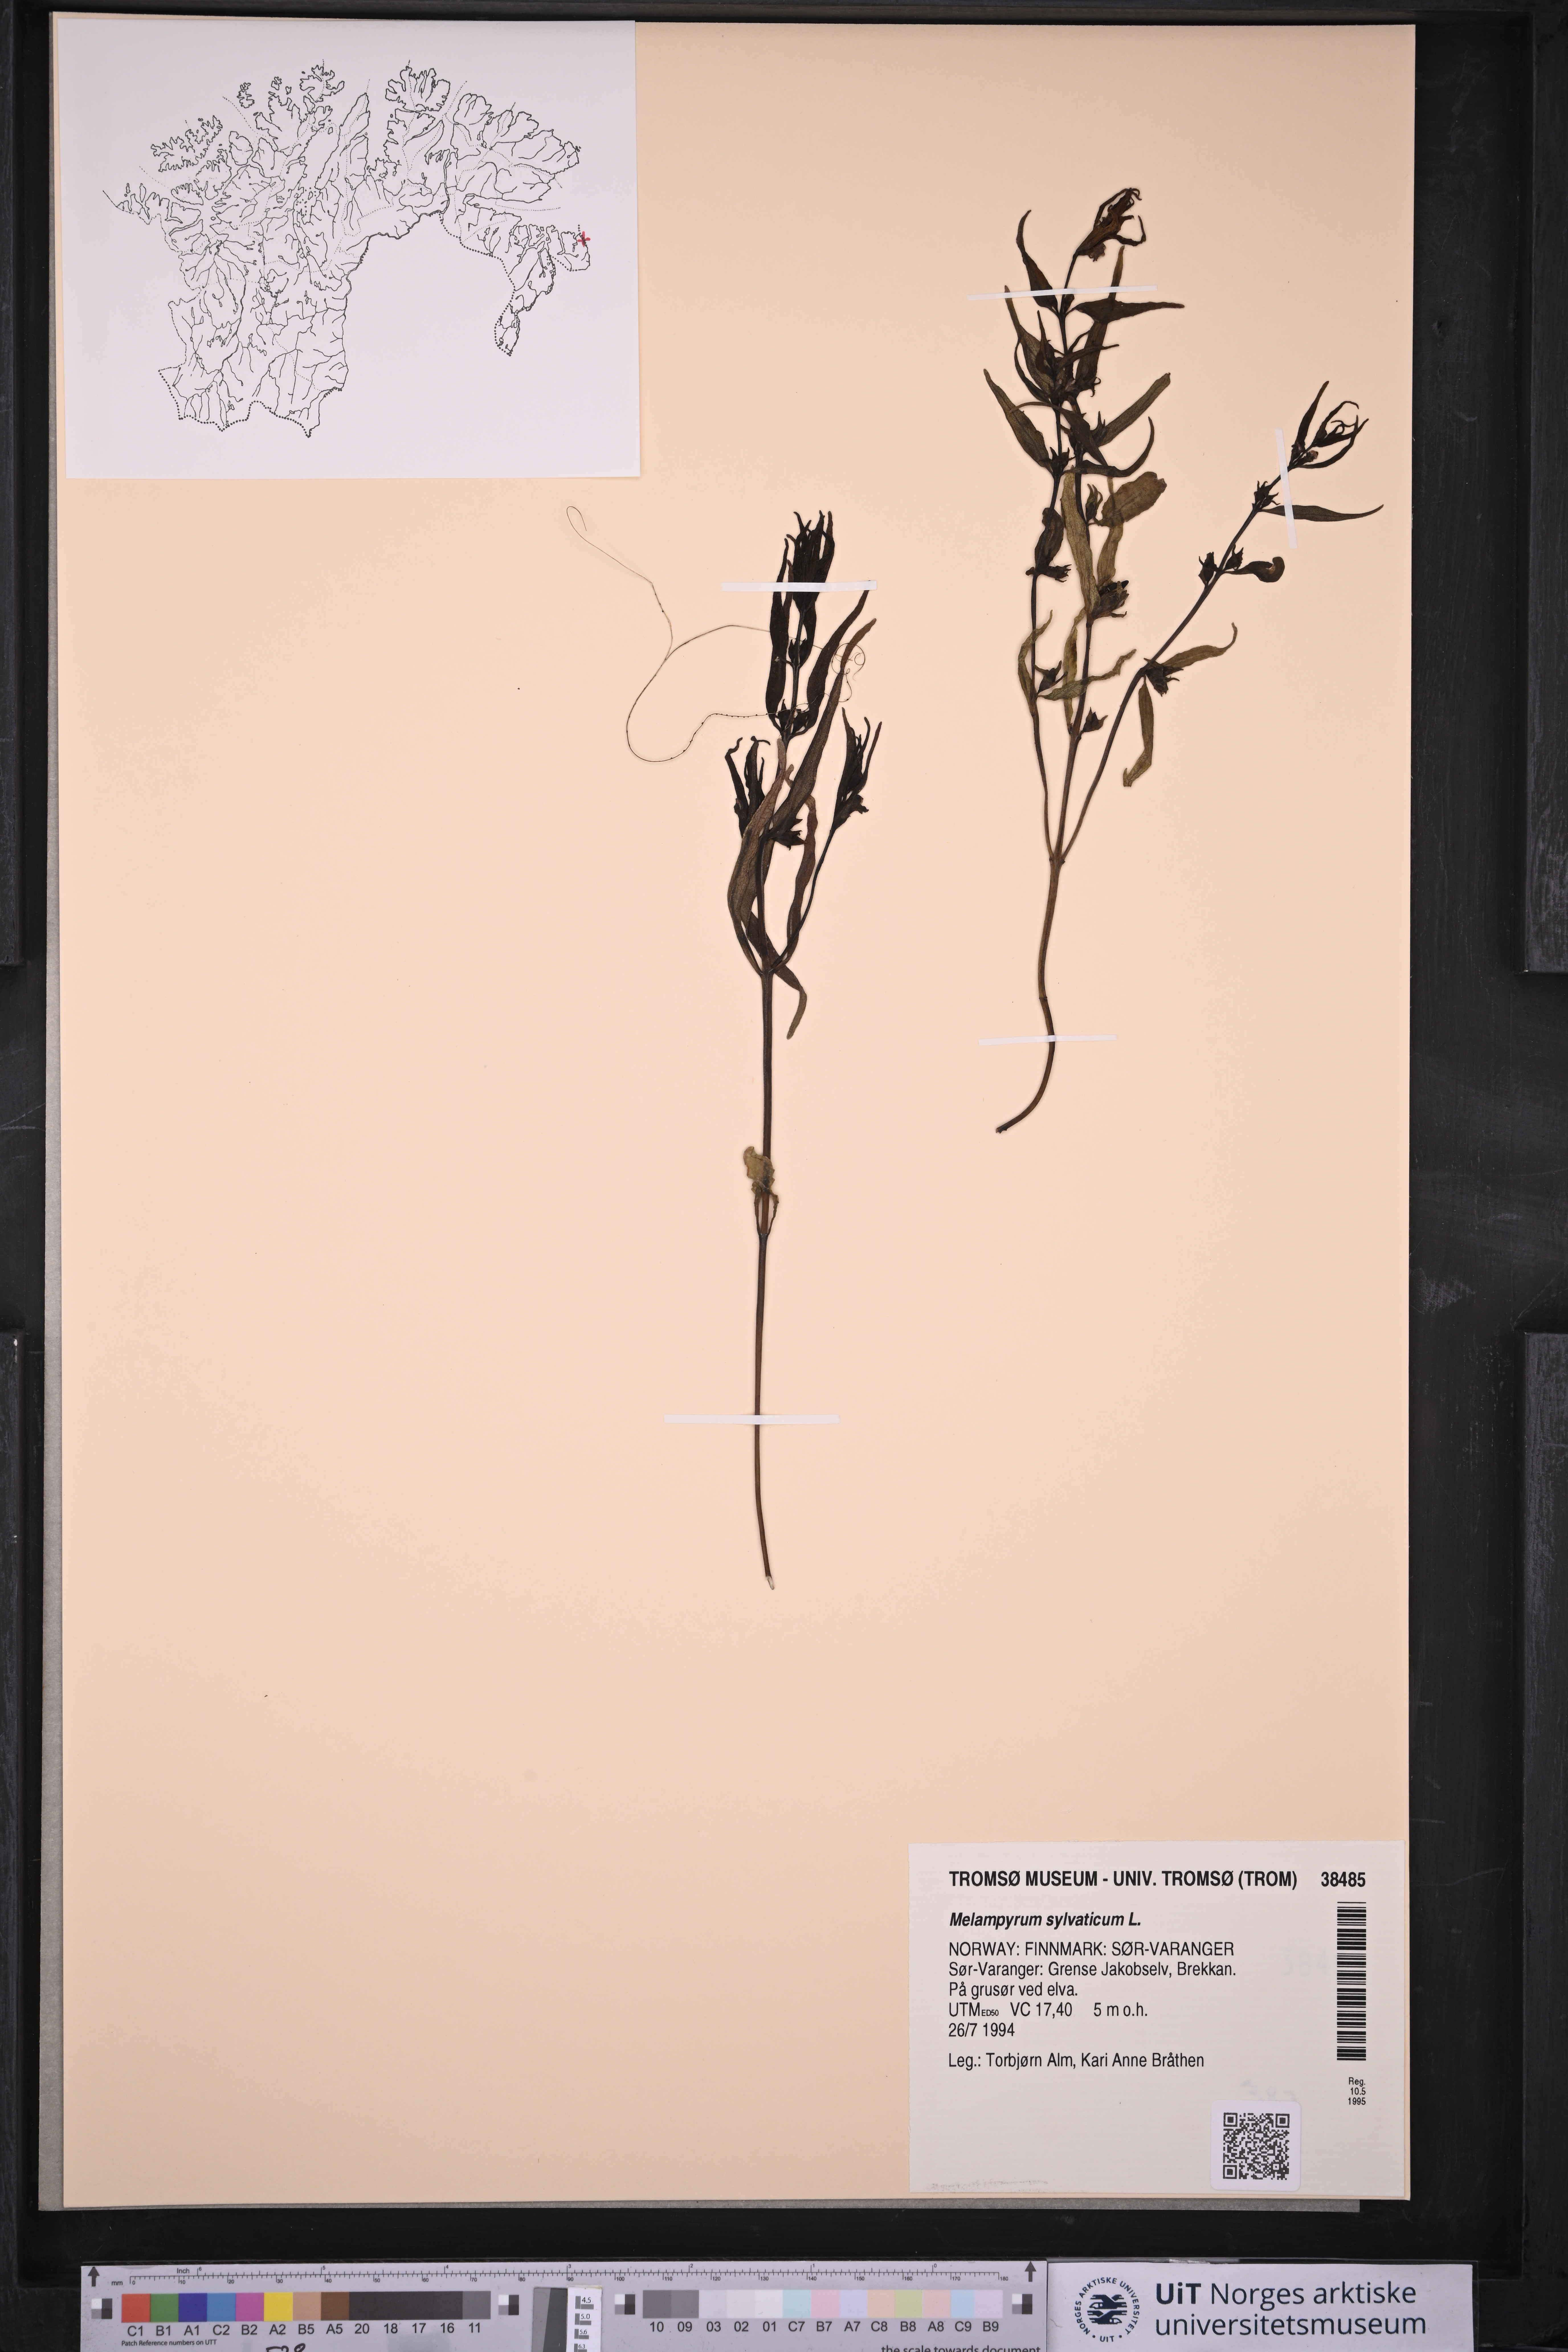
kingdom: Plantae
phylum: Tracheophyta
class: Magnoliopsida
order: Lamiales
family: Orobanchaceae
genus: Melampyrum
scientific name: Melampyrum sylvaticum
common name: Small cow-wheat
